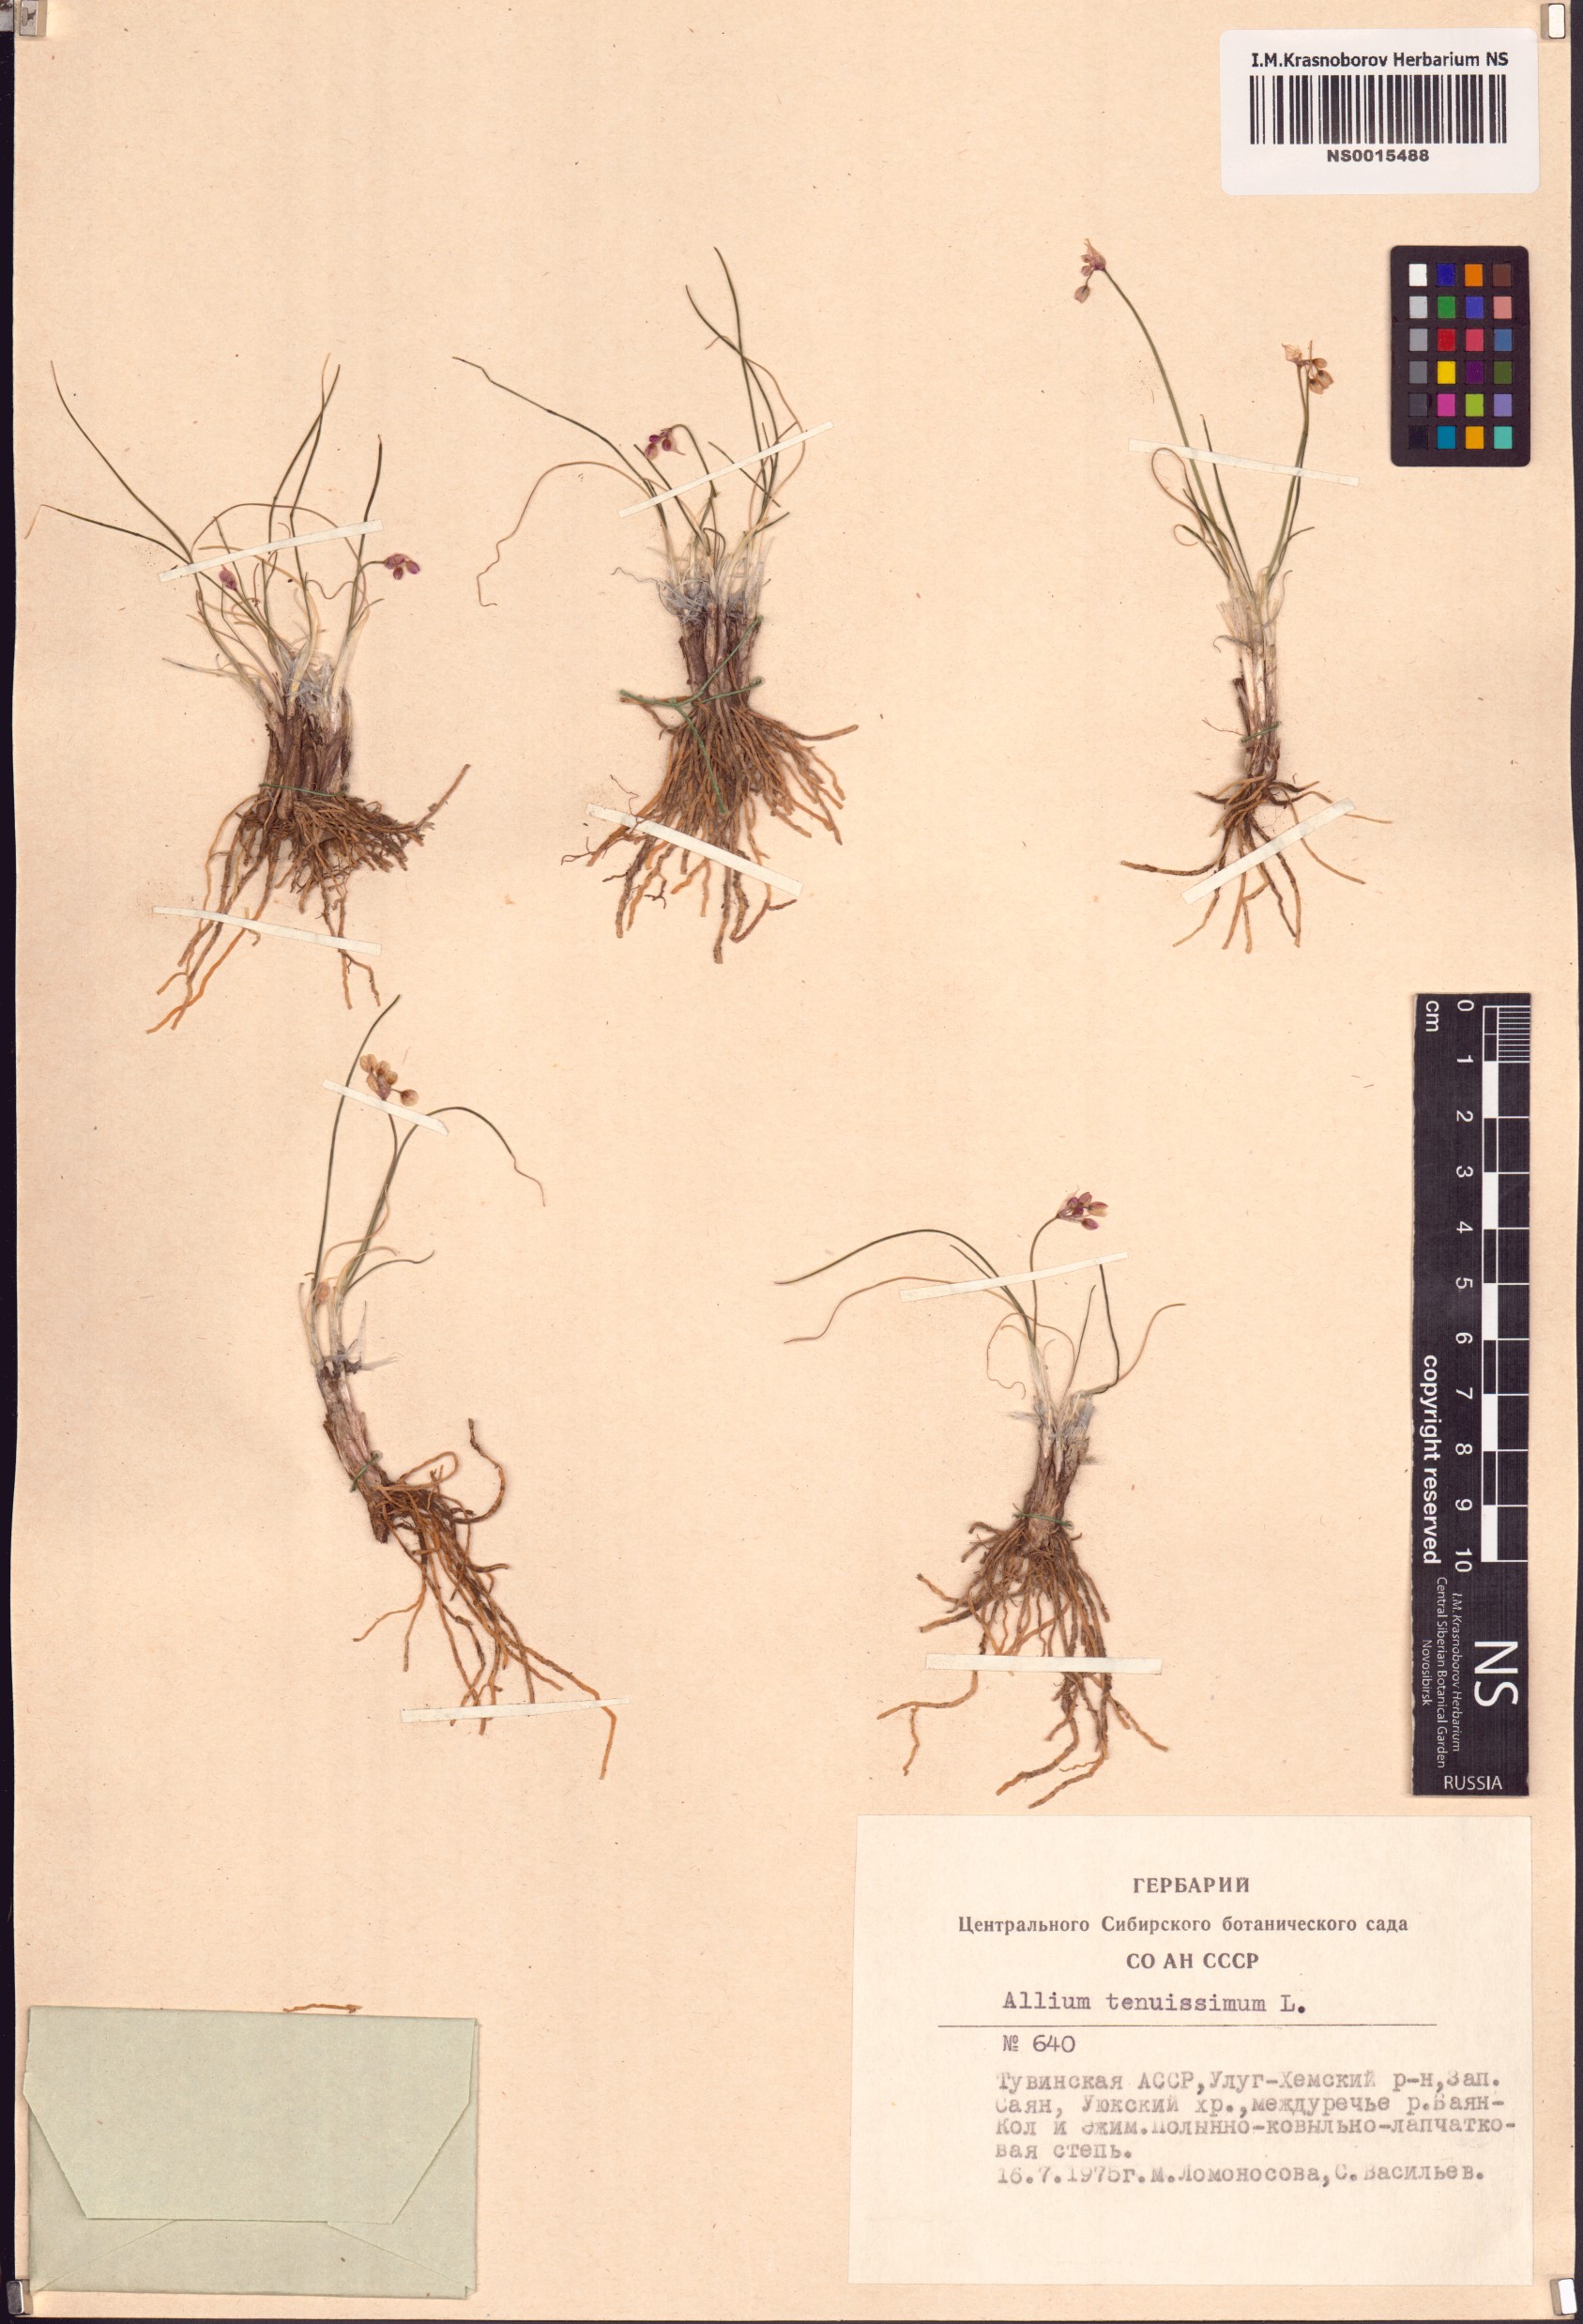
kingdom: Plantae
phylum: Tracheophyta
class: Liliopsida
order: Asparagales
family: Amaryllidaceae
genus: Allium
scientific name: Allium tenuissimum
